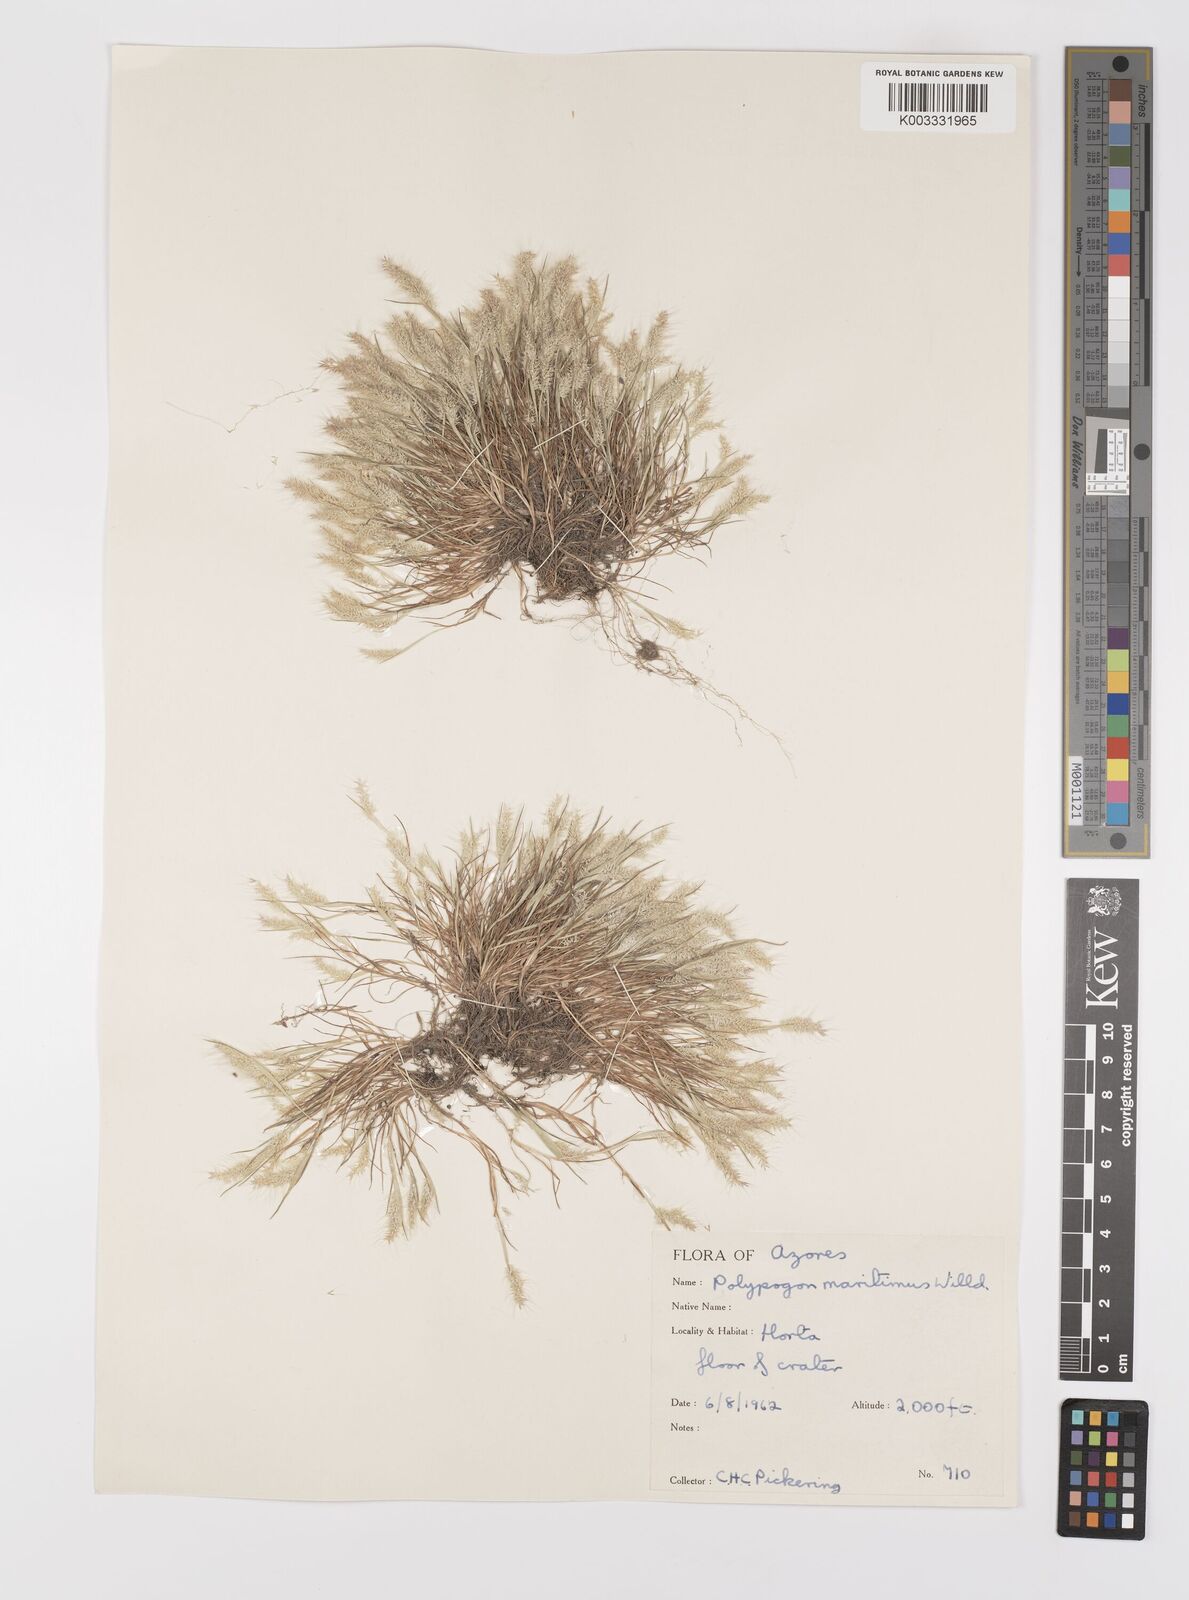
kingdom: Plantae
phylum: Tracheophyta
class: Liliopsida
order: Poales
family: Poaceae
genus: Polypogon
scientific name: Polypogon maritimus
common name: Mediterranean rabbitsfoot grass
